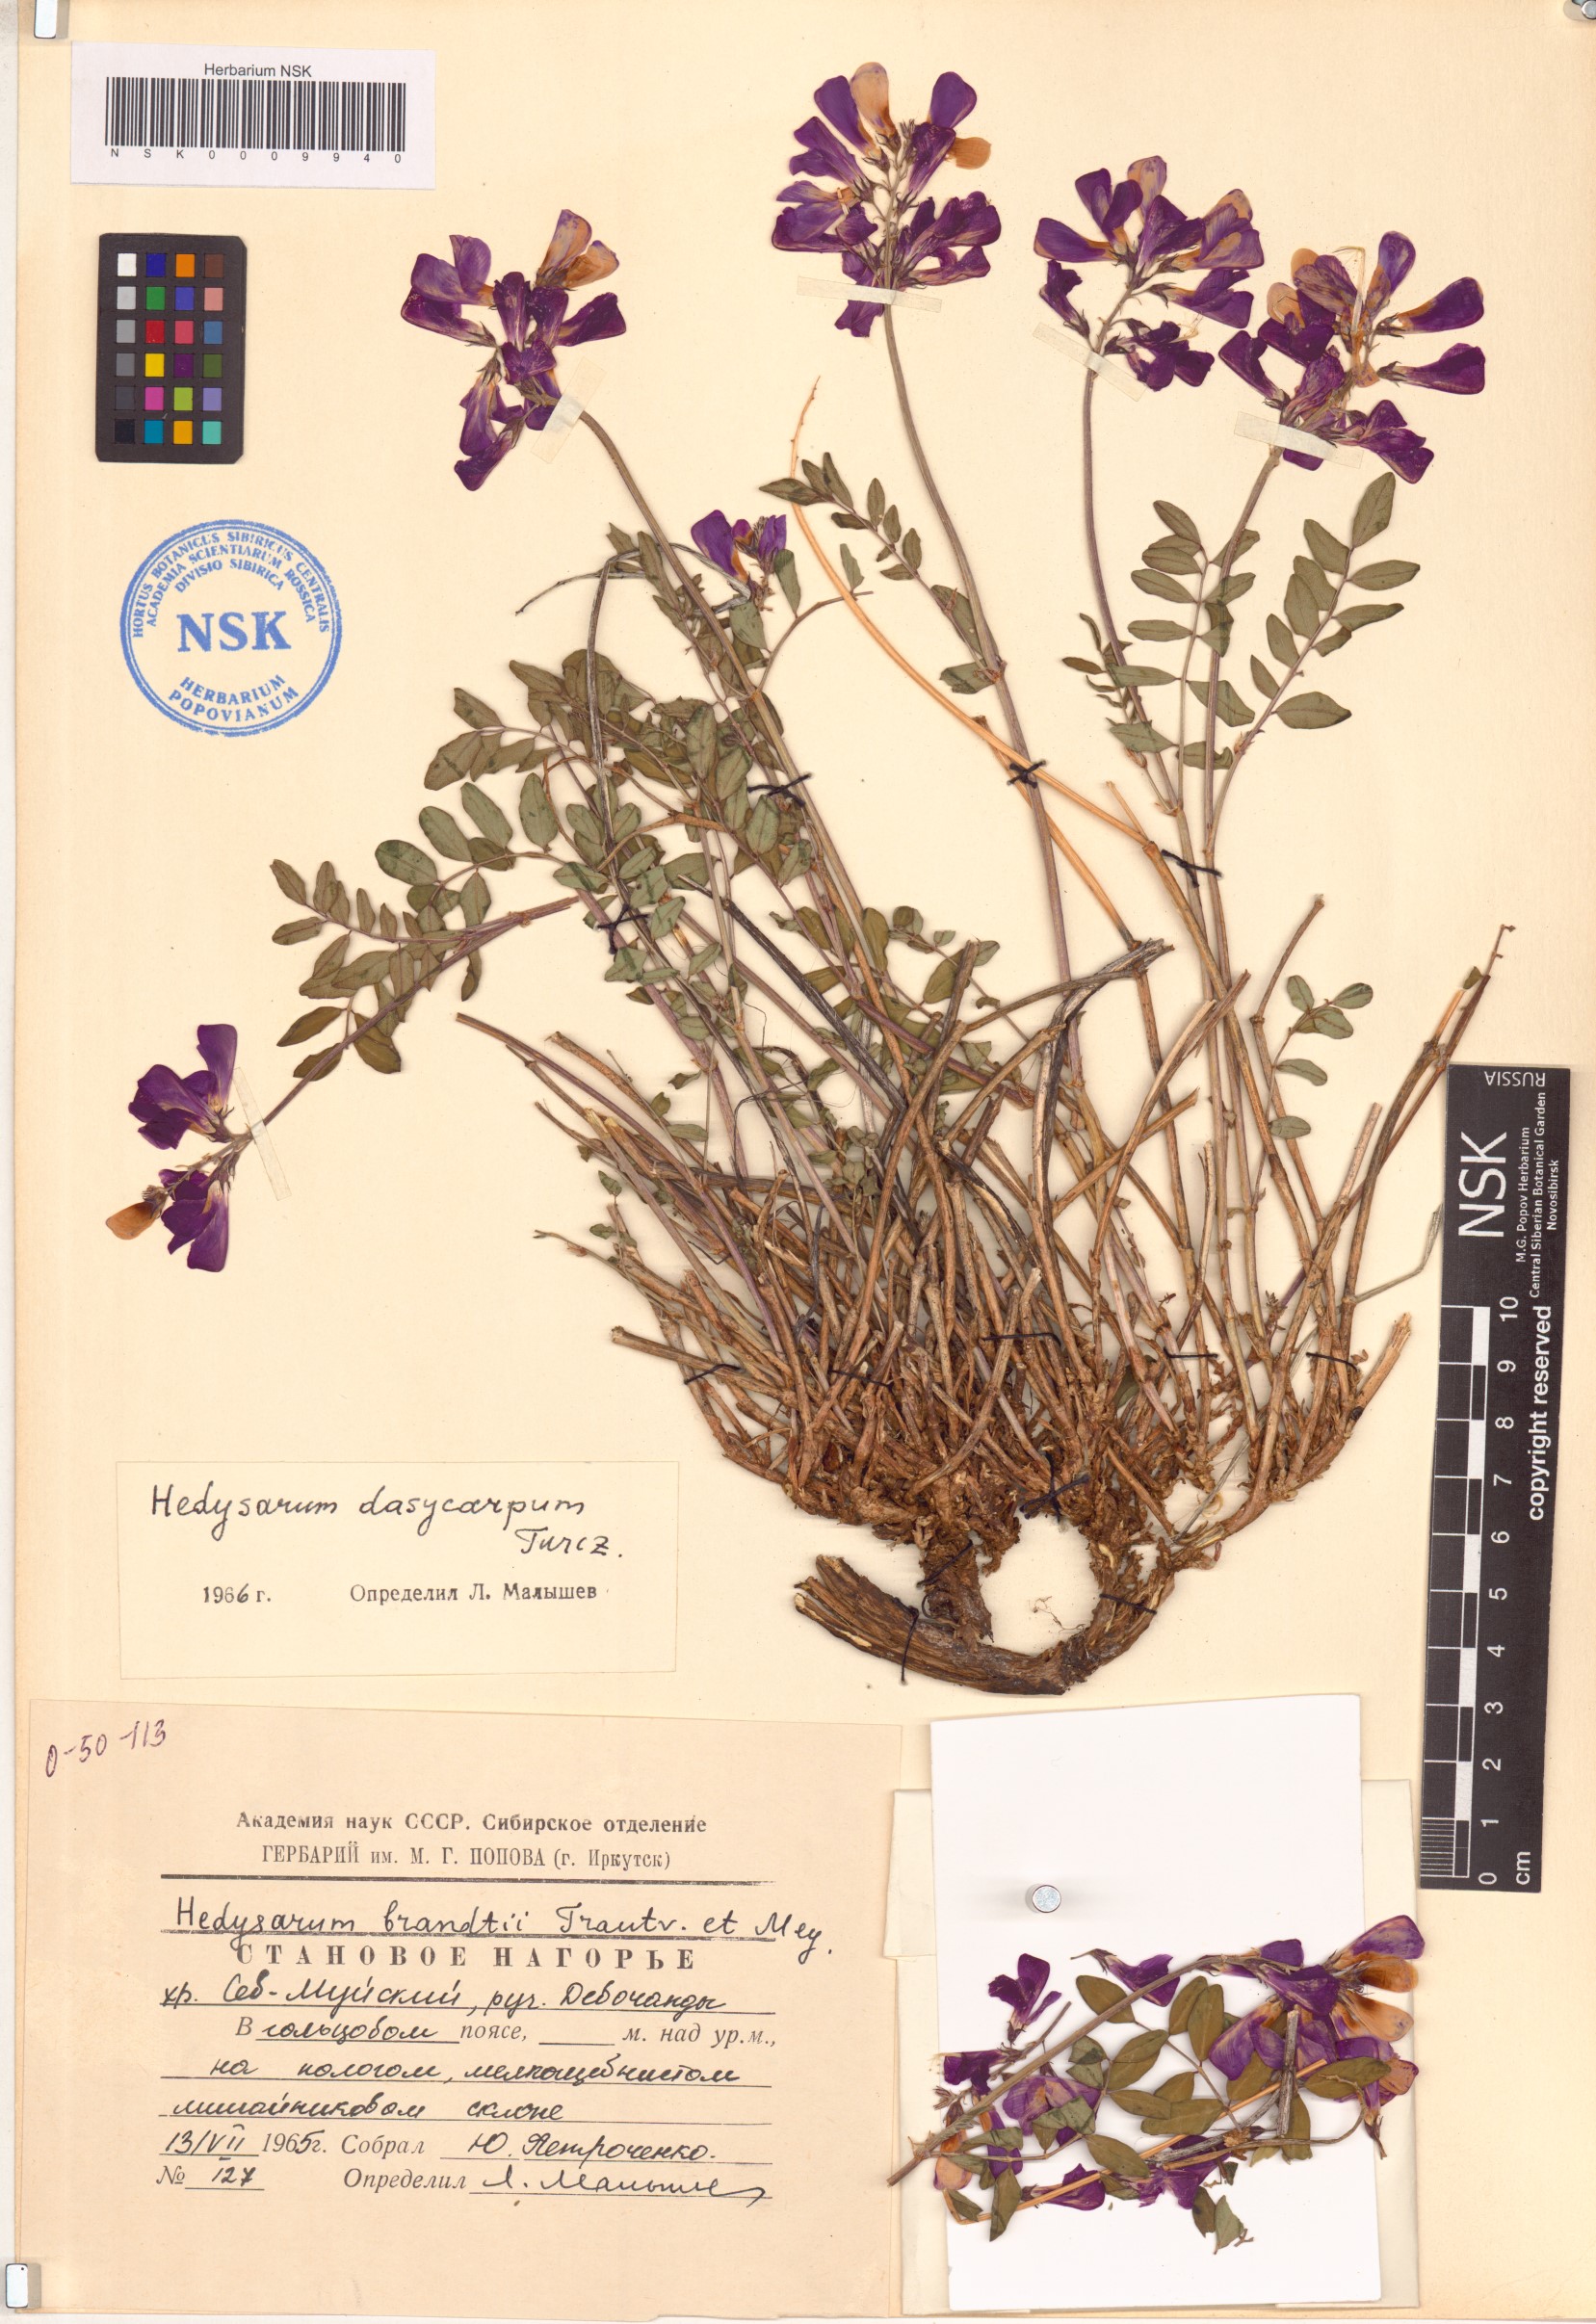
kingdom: Plantae
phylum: Tracheophyta
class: Magnoliopsida
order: Fabales
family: Fabaceae
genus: Hedysarum
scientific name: Hedysarum dasycarpum
